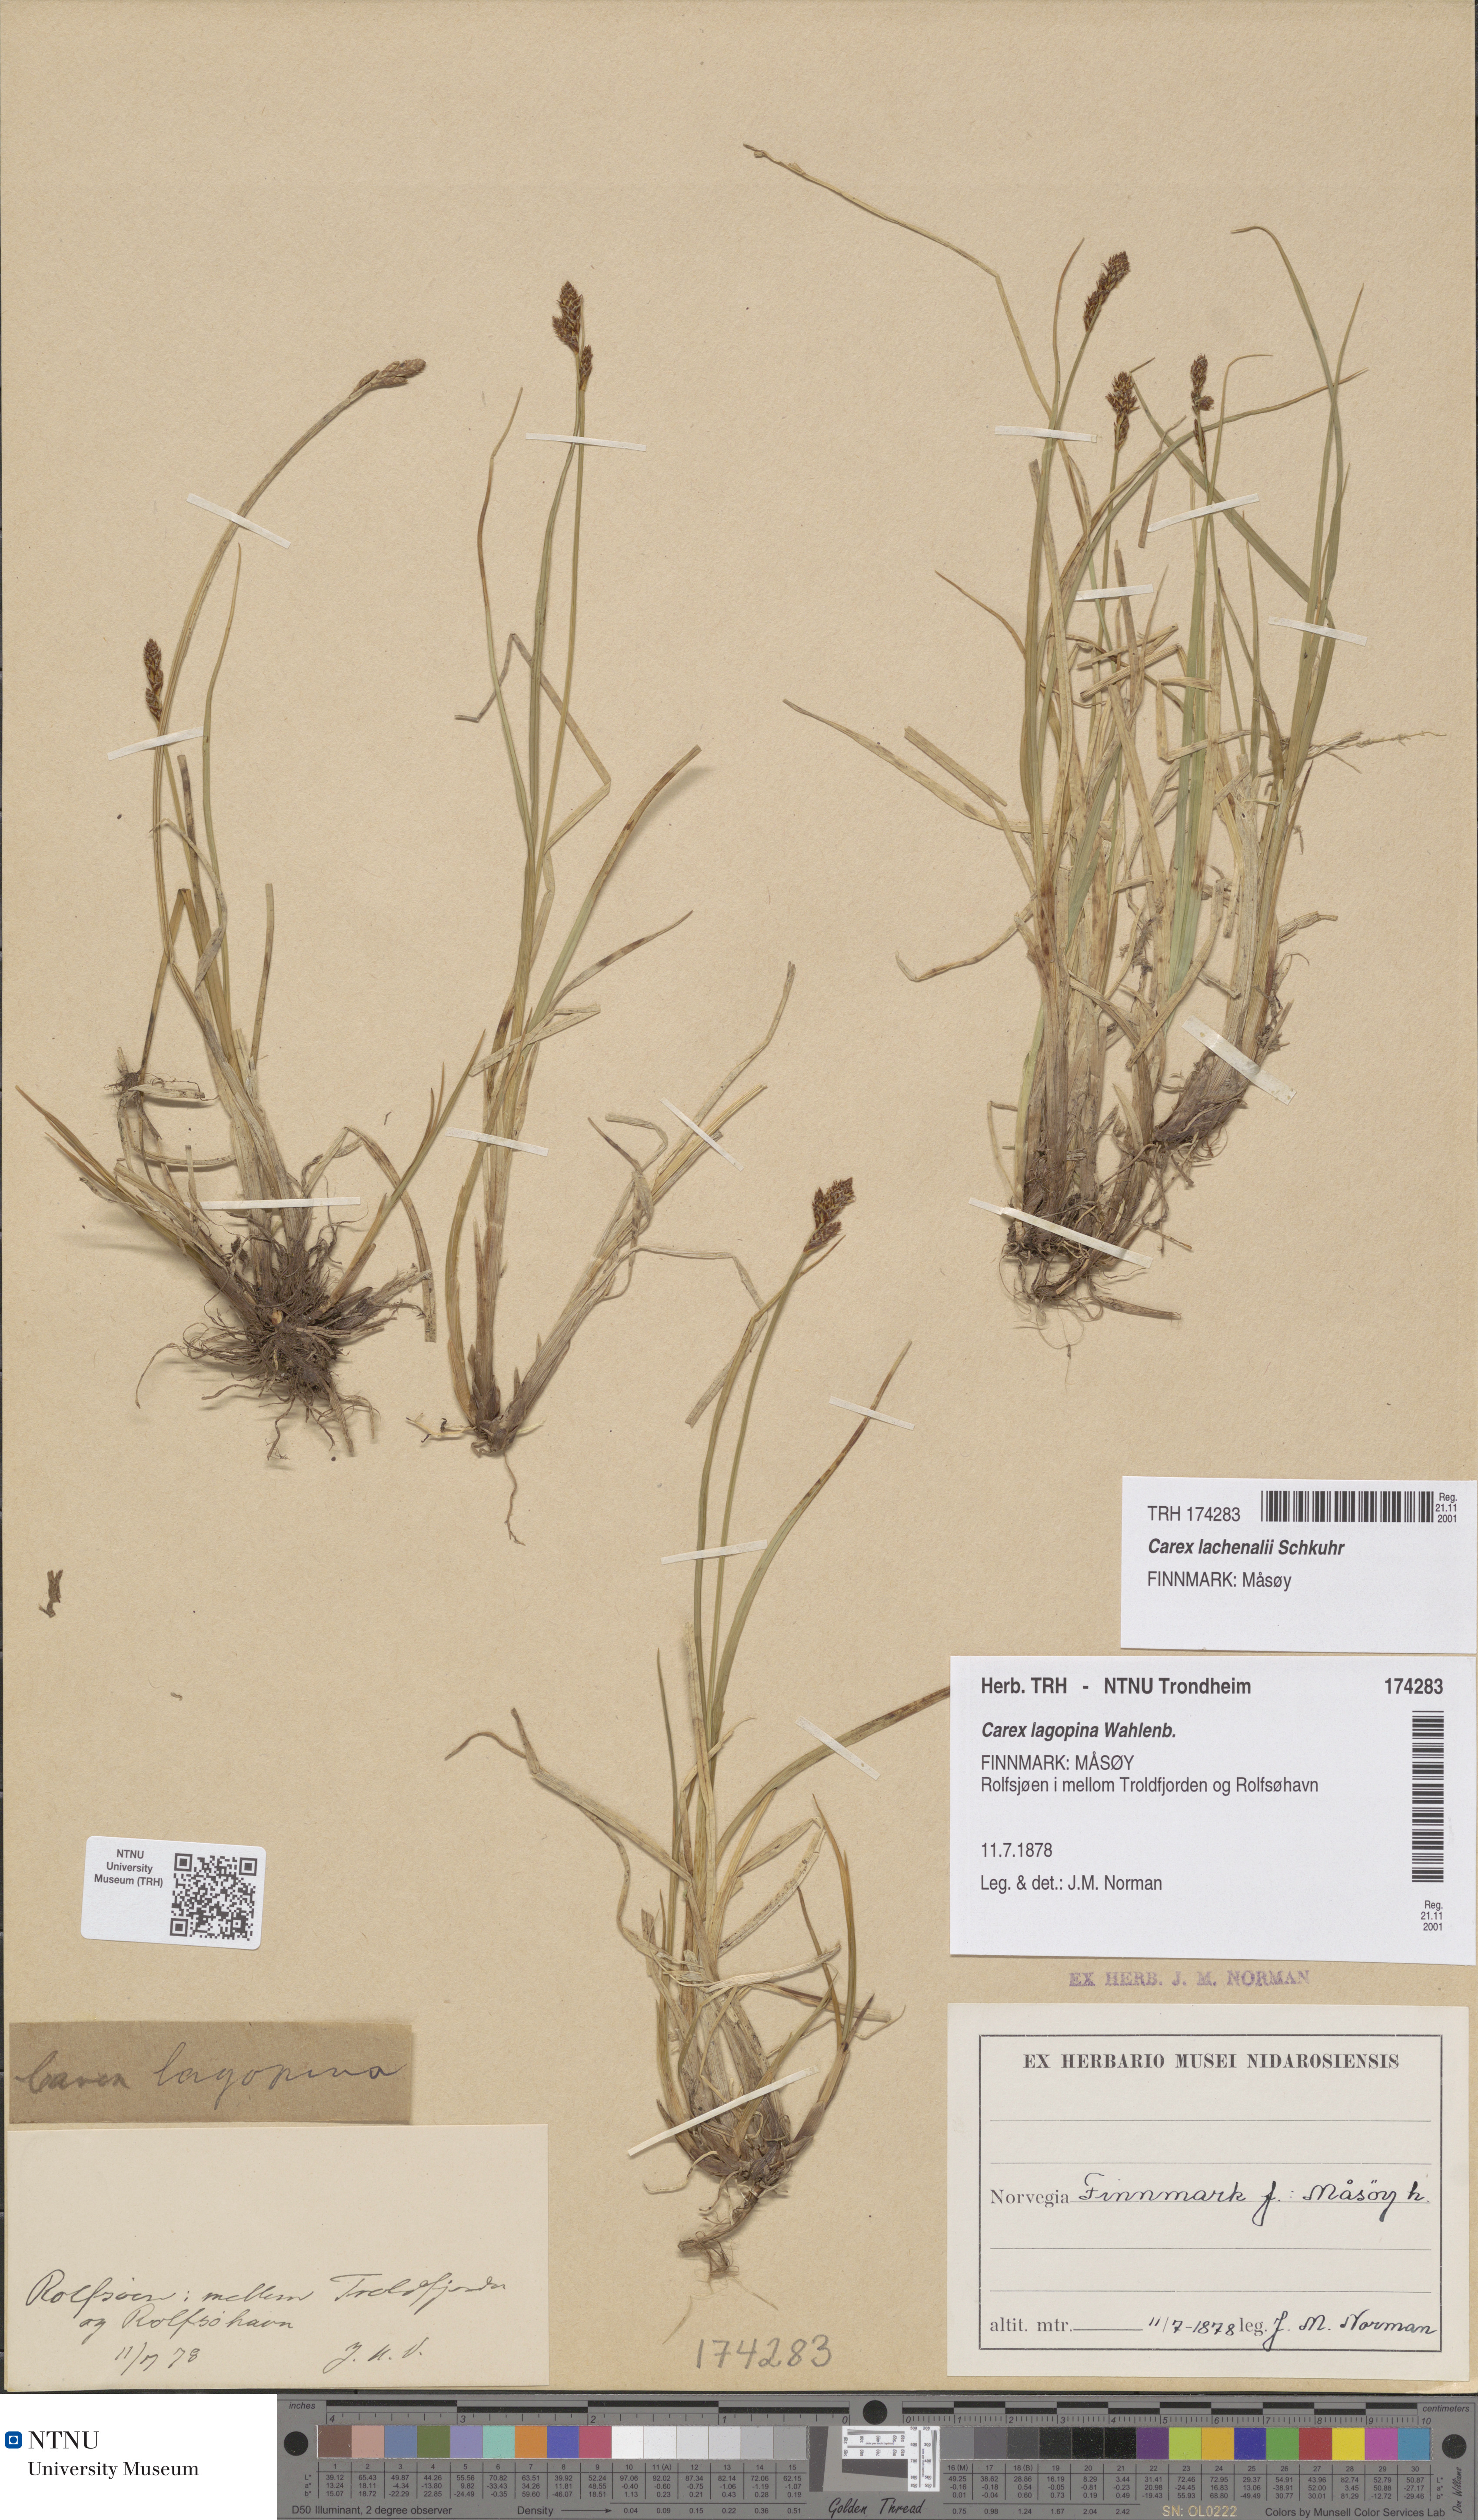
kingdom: Plantae
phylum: Tracheophyta
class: Liliopsida
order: Poales
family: Cyperaceae
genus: Carex
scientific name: Carex lachenalii
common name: Hare's-foot sedge
